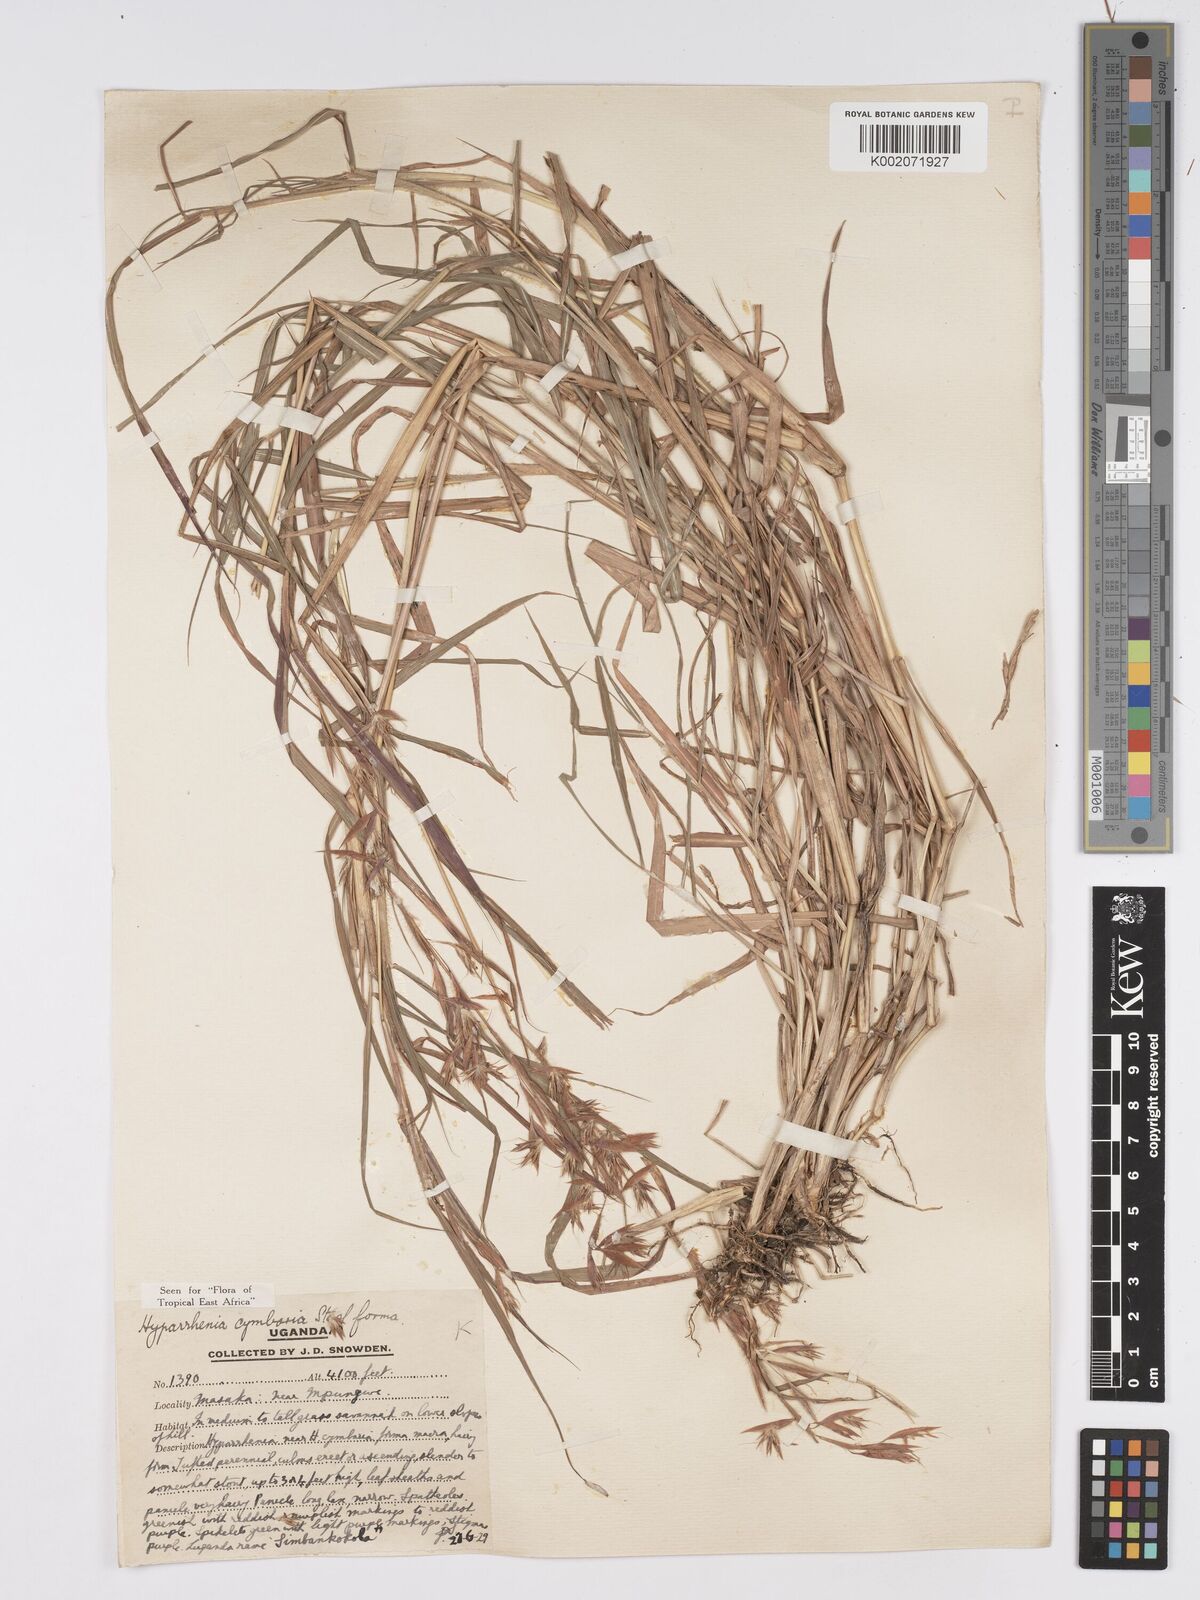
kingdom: Plantae
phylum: Tracheophyta
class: Liliopsida
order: Poales
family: Poaceae
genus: Hyparrhenia
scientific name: Hyparrhenia cymbaria
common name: Boat thatching grass
